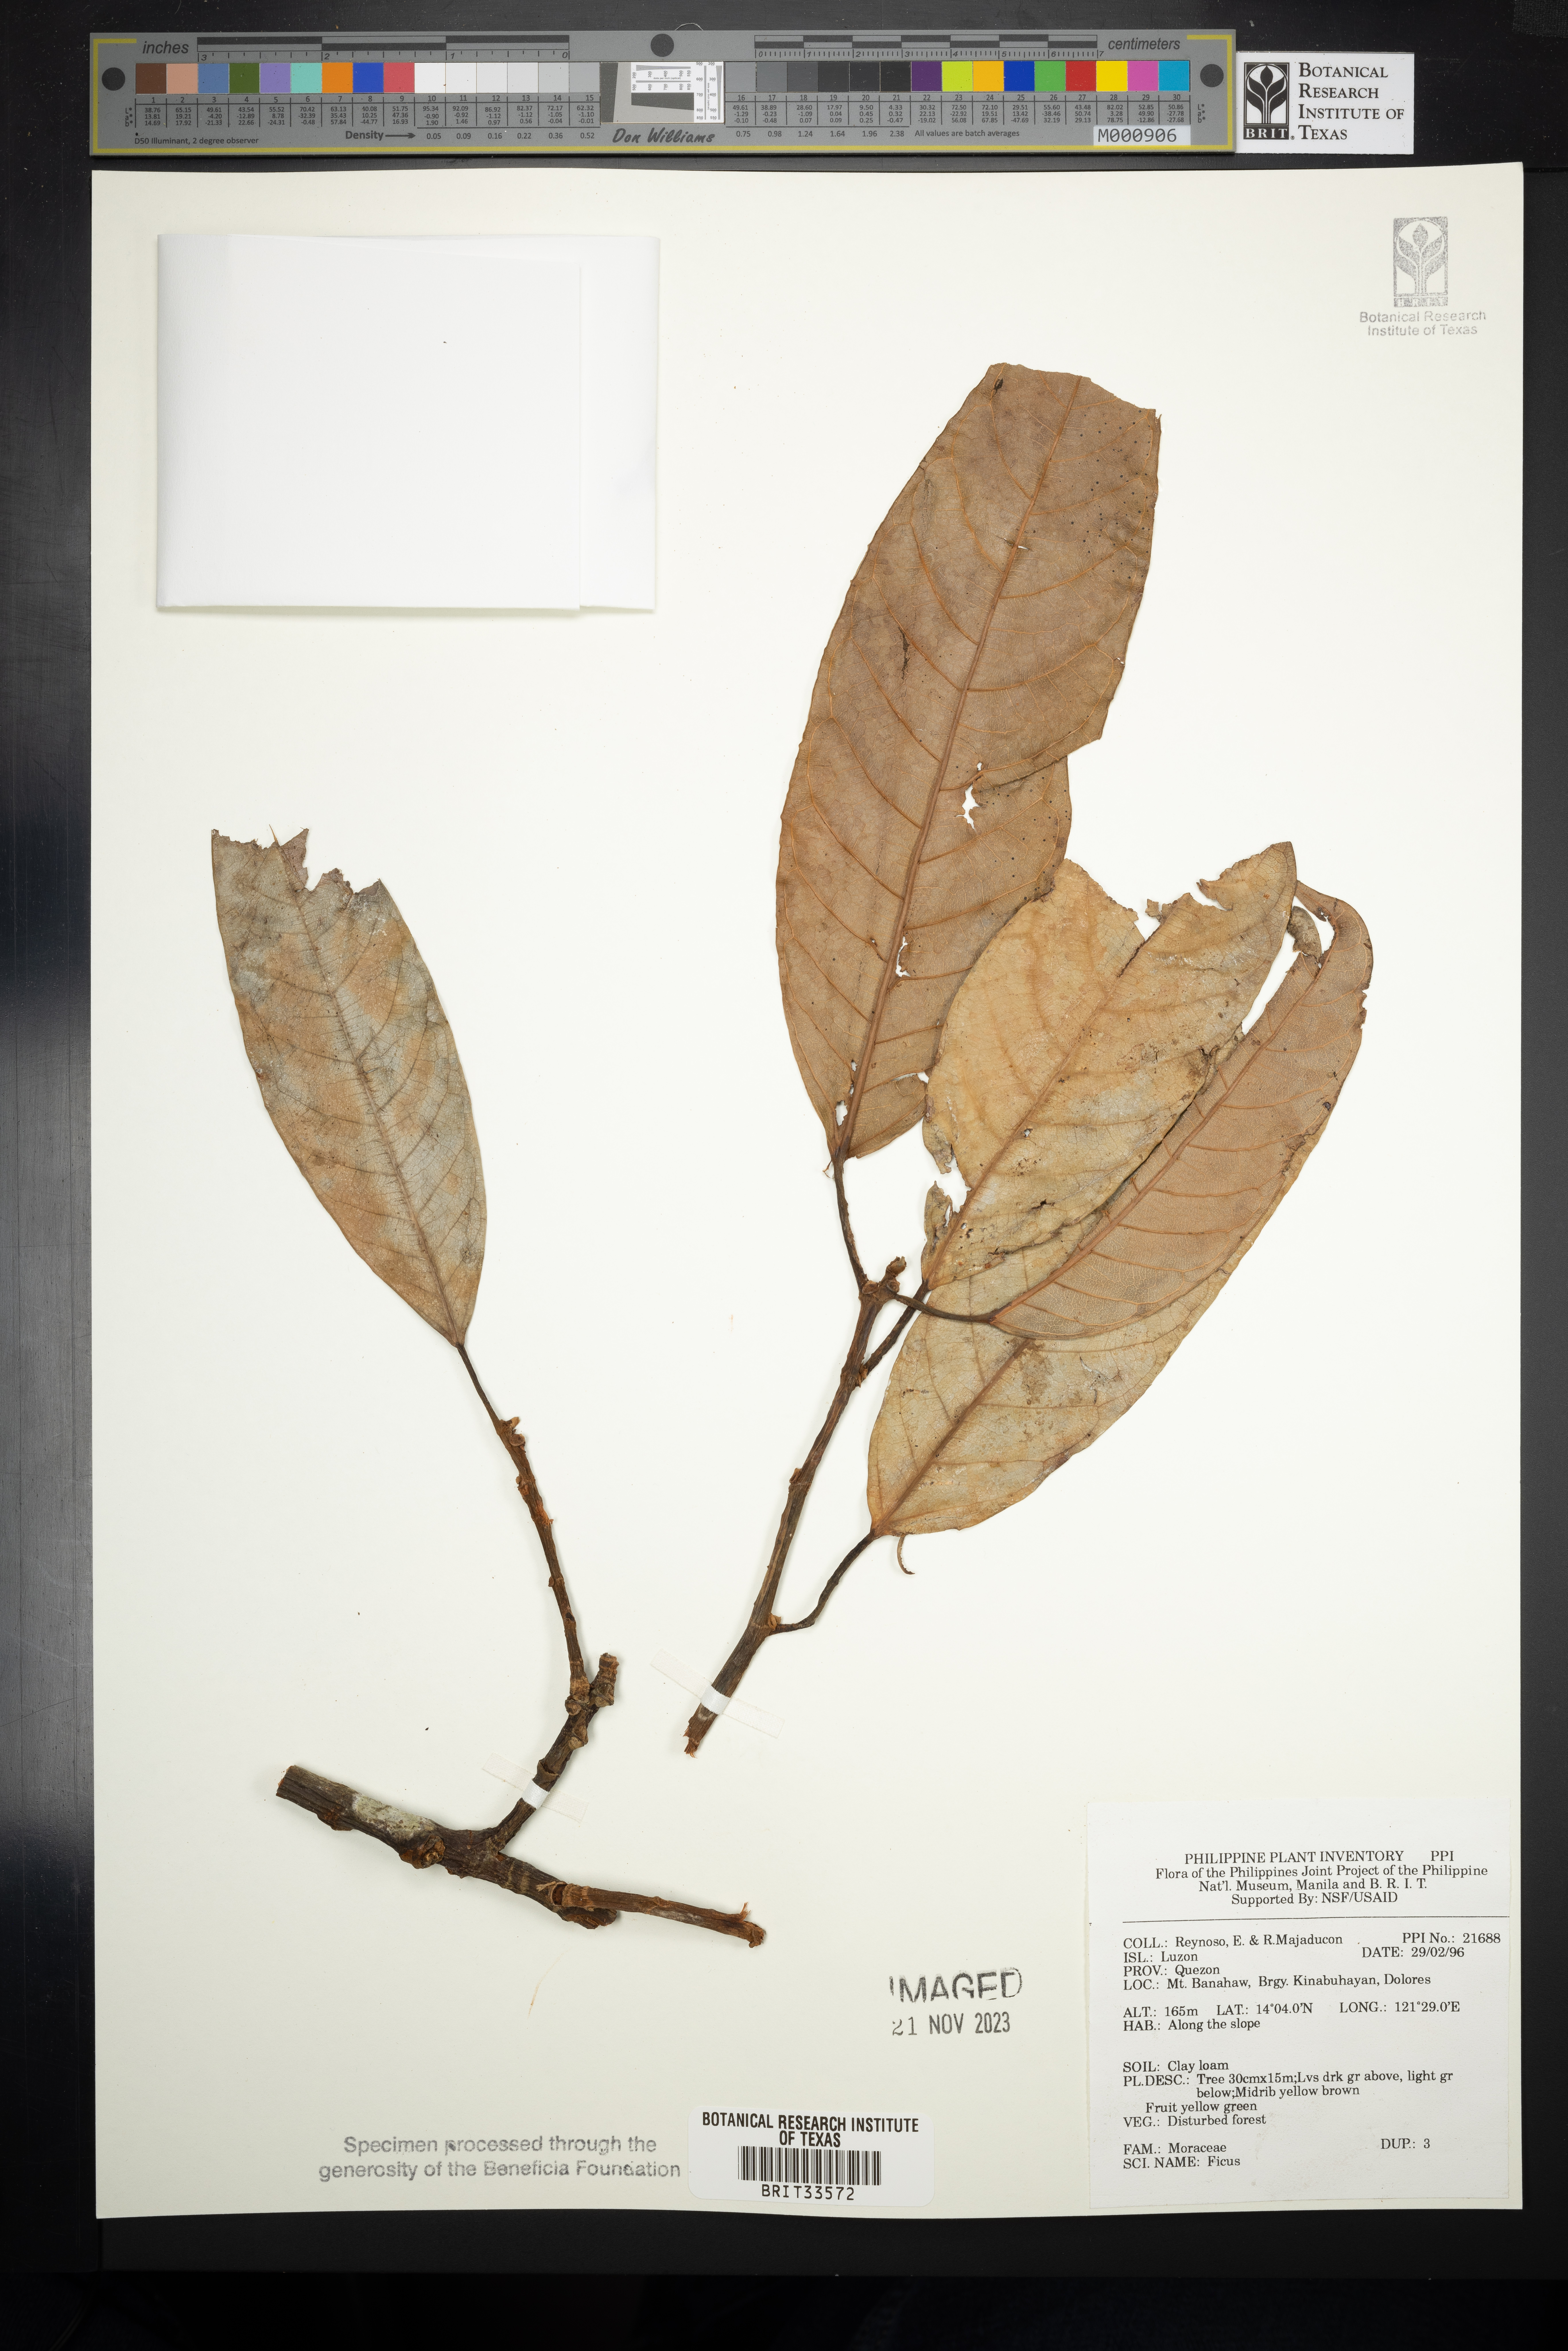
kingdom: Plantae
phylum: Tracheophyta
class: Magnoliopsida
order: Rosales
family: Moraceae
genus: Ficus
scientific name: Ficus
